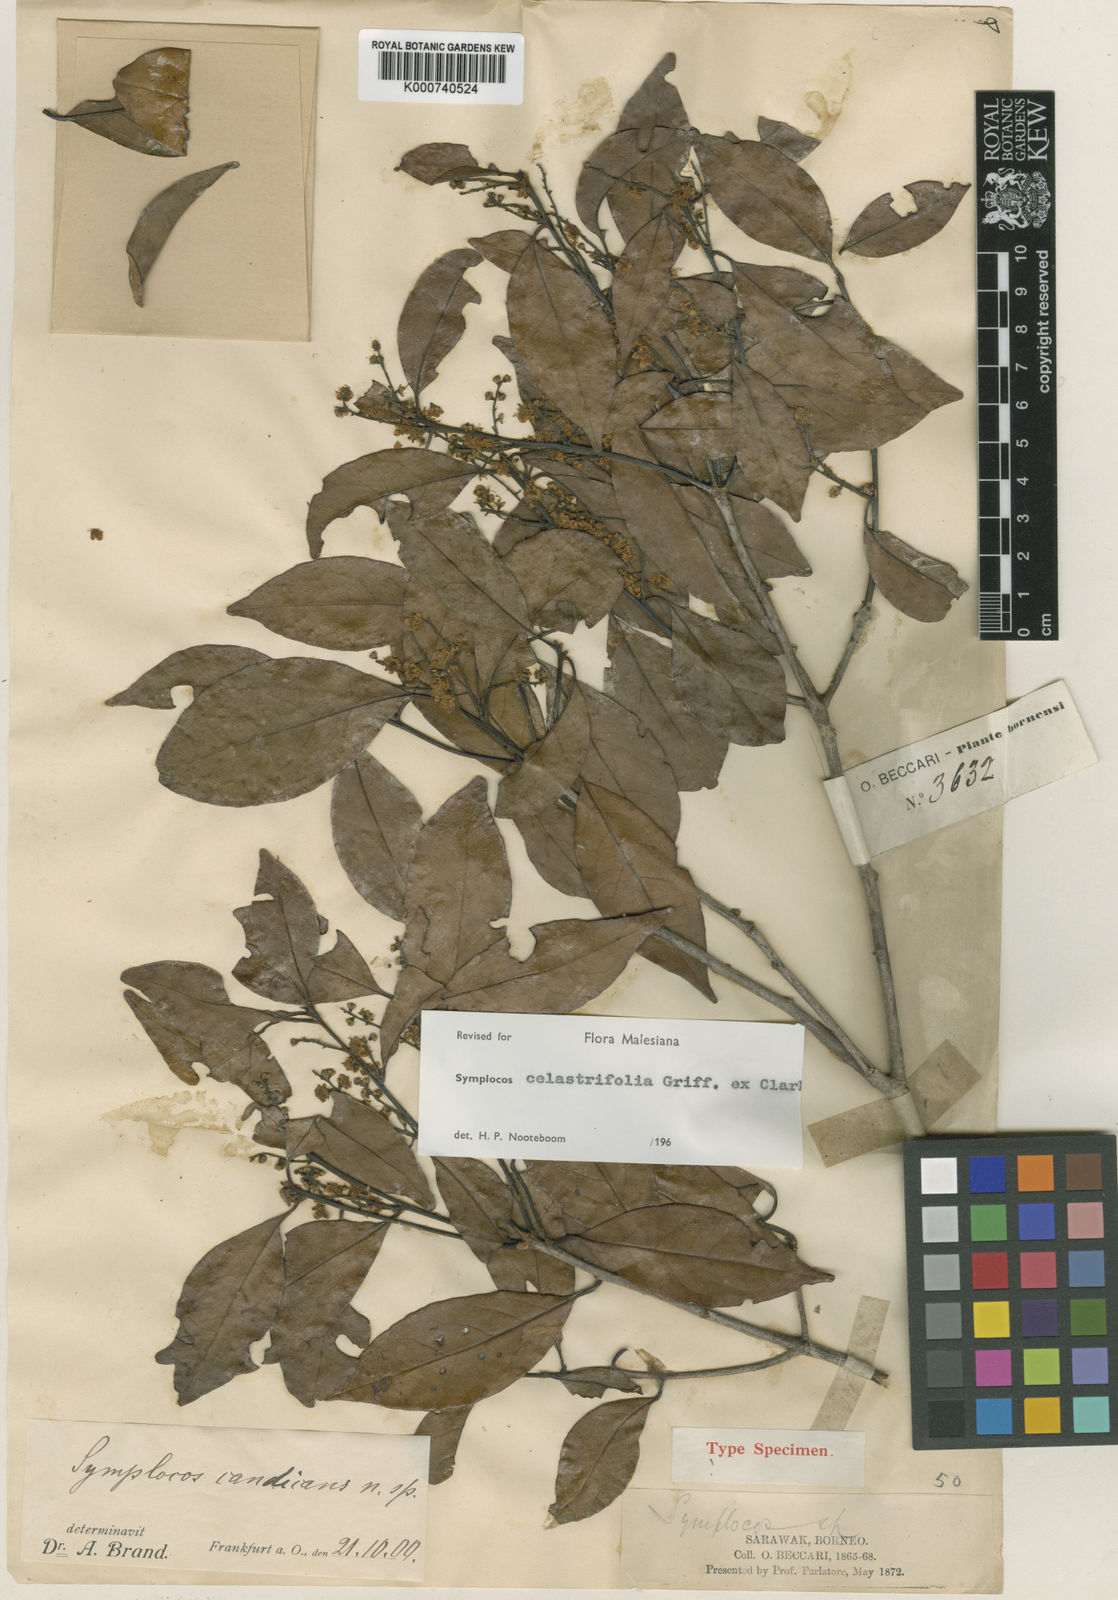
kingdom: Plantae
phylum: Tracheophyta
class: Magnoliopsida
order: Ericales
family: Symplocaceae
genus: Symplocos
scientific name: Symplocos celastrifolia
